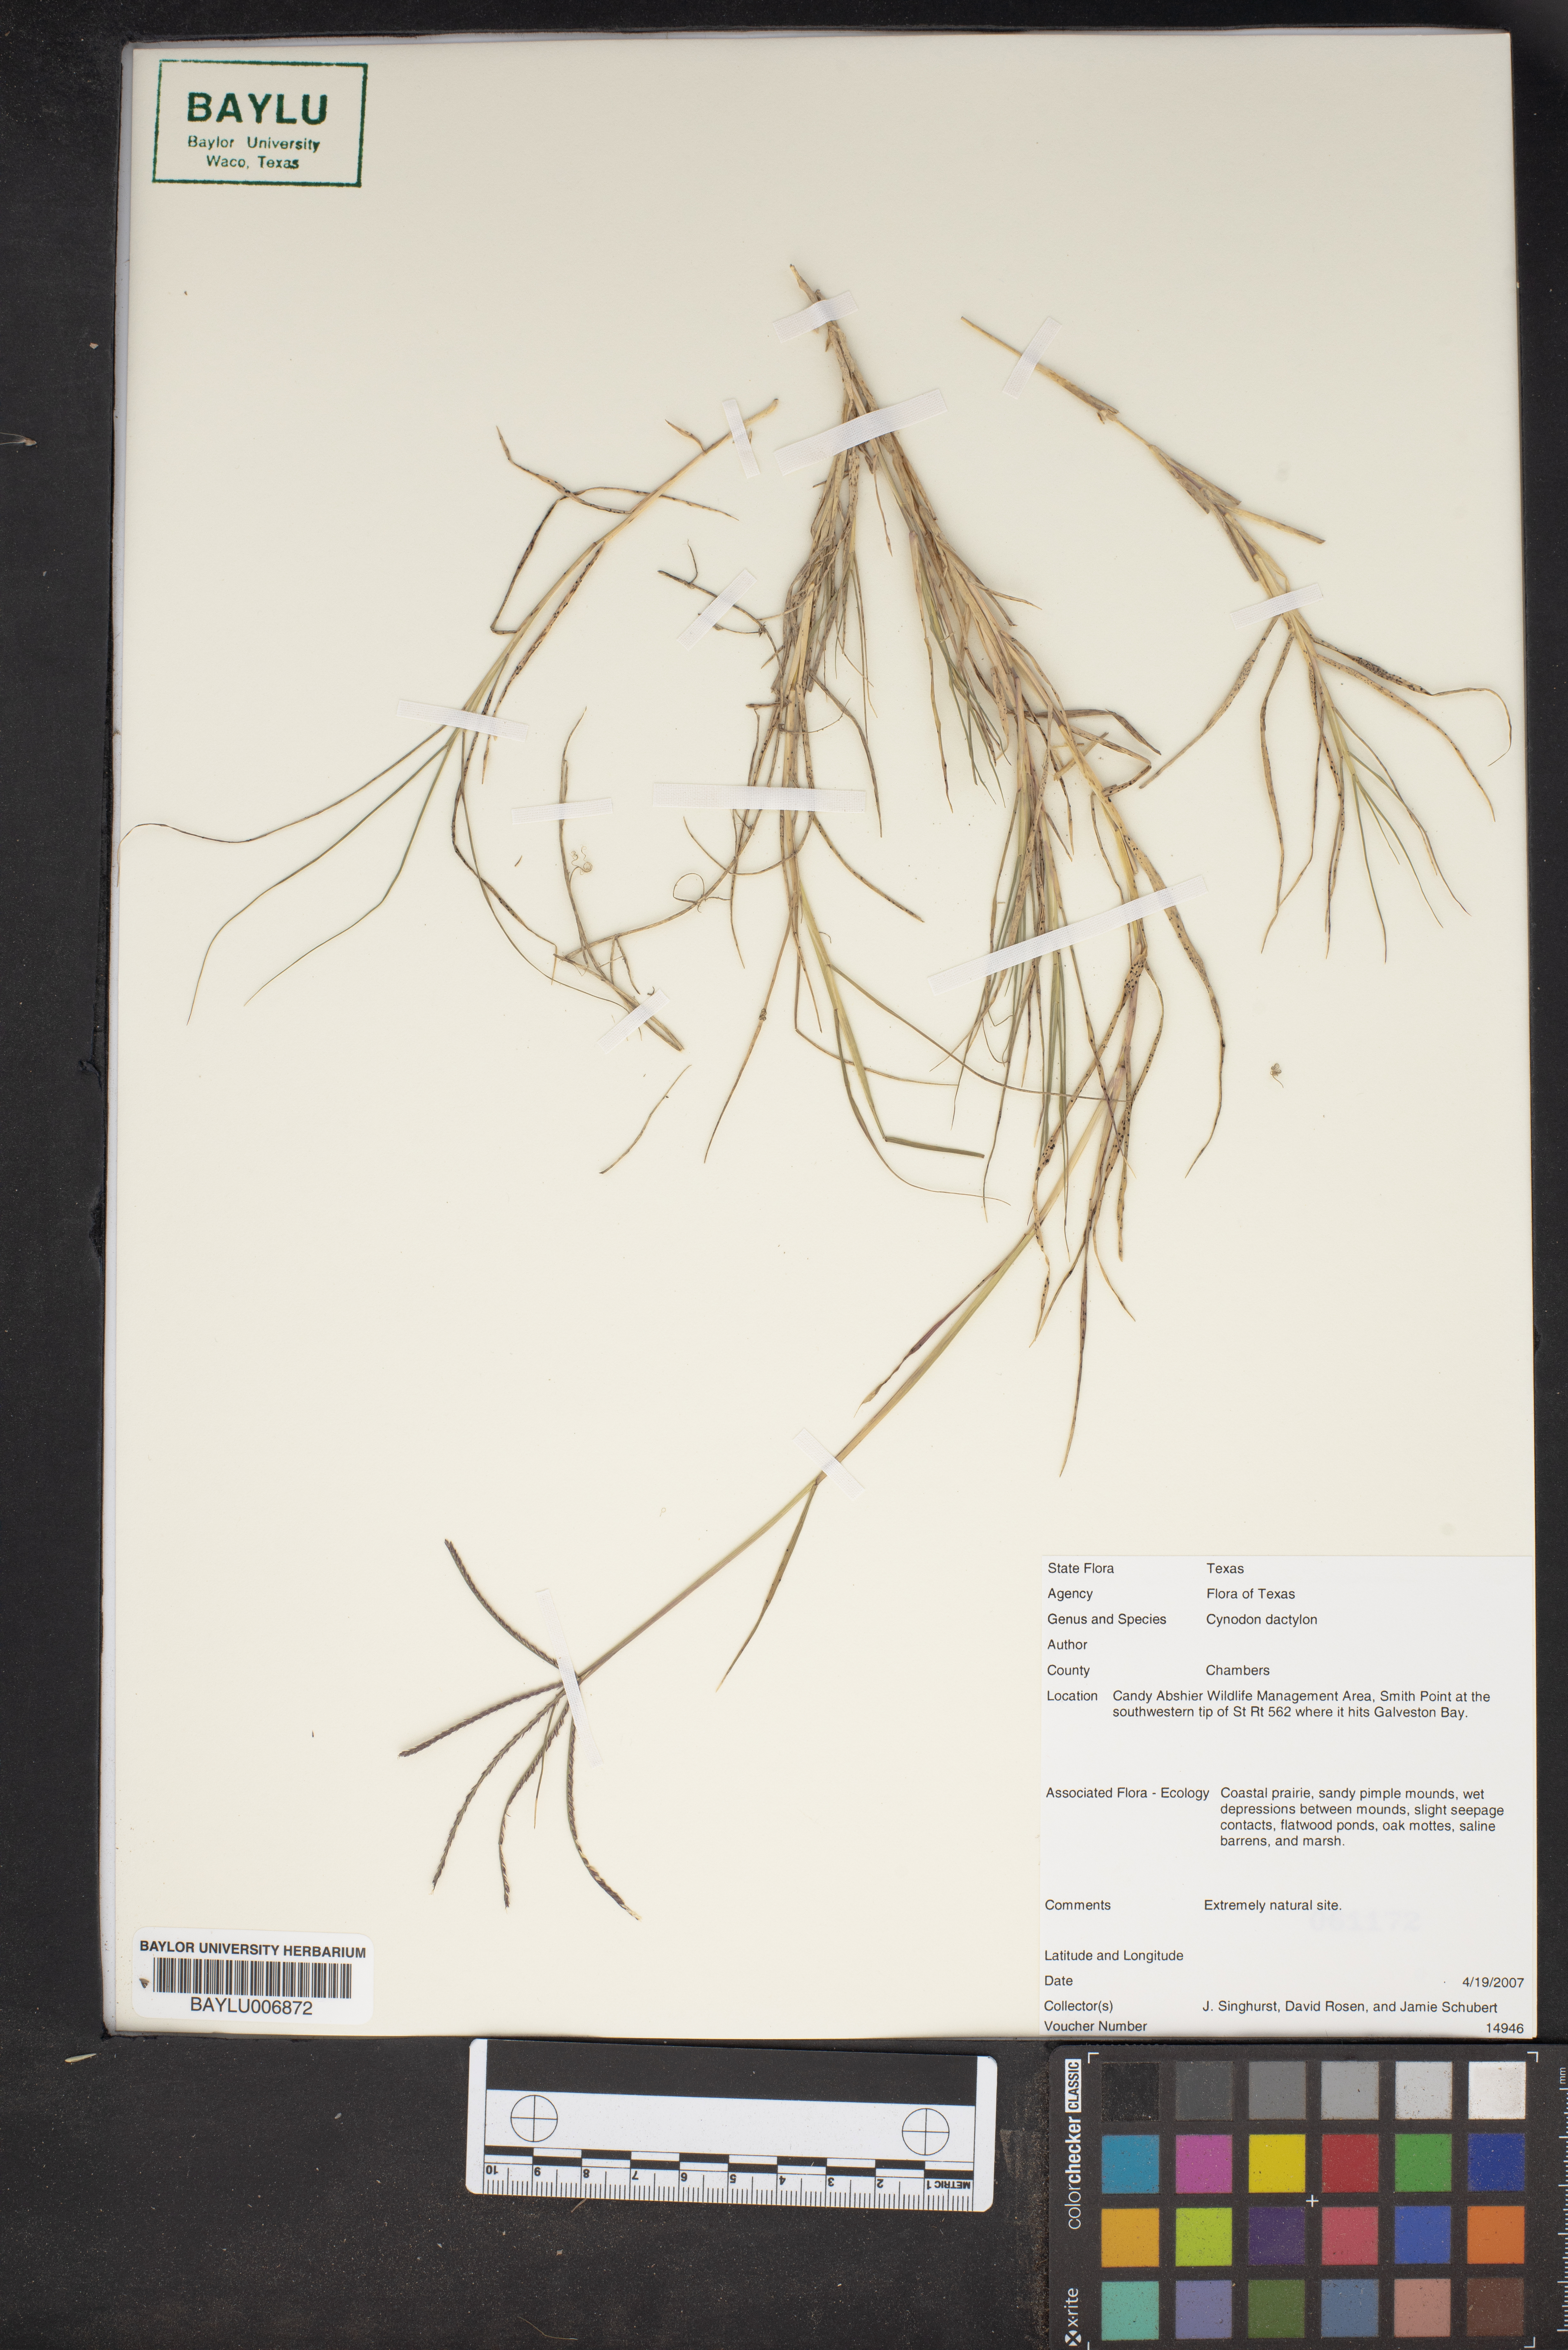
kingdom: Plantae
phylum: Tracheophyta
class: Liliopsida
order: Poales
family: Poaceae
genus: Cynodon
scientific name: Cynodon dactylon
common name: Bermuda grass
